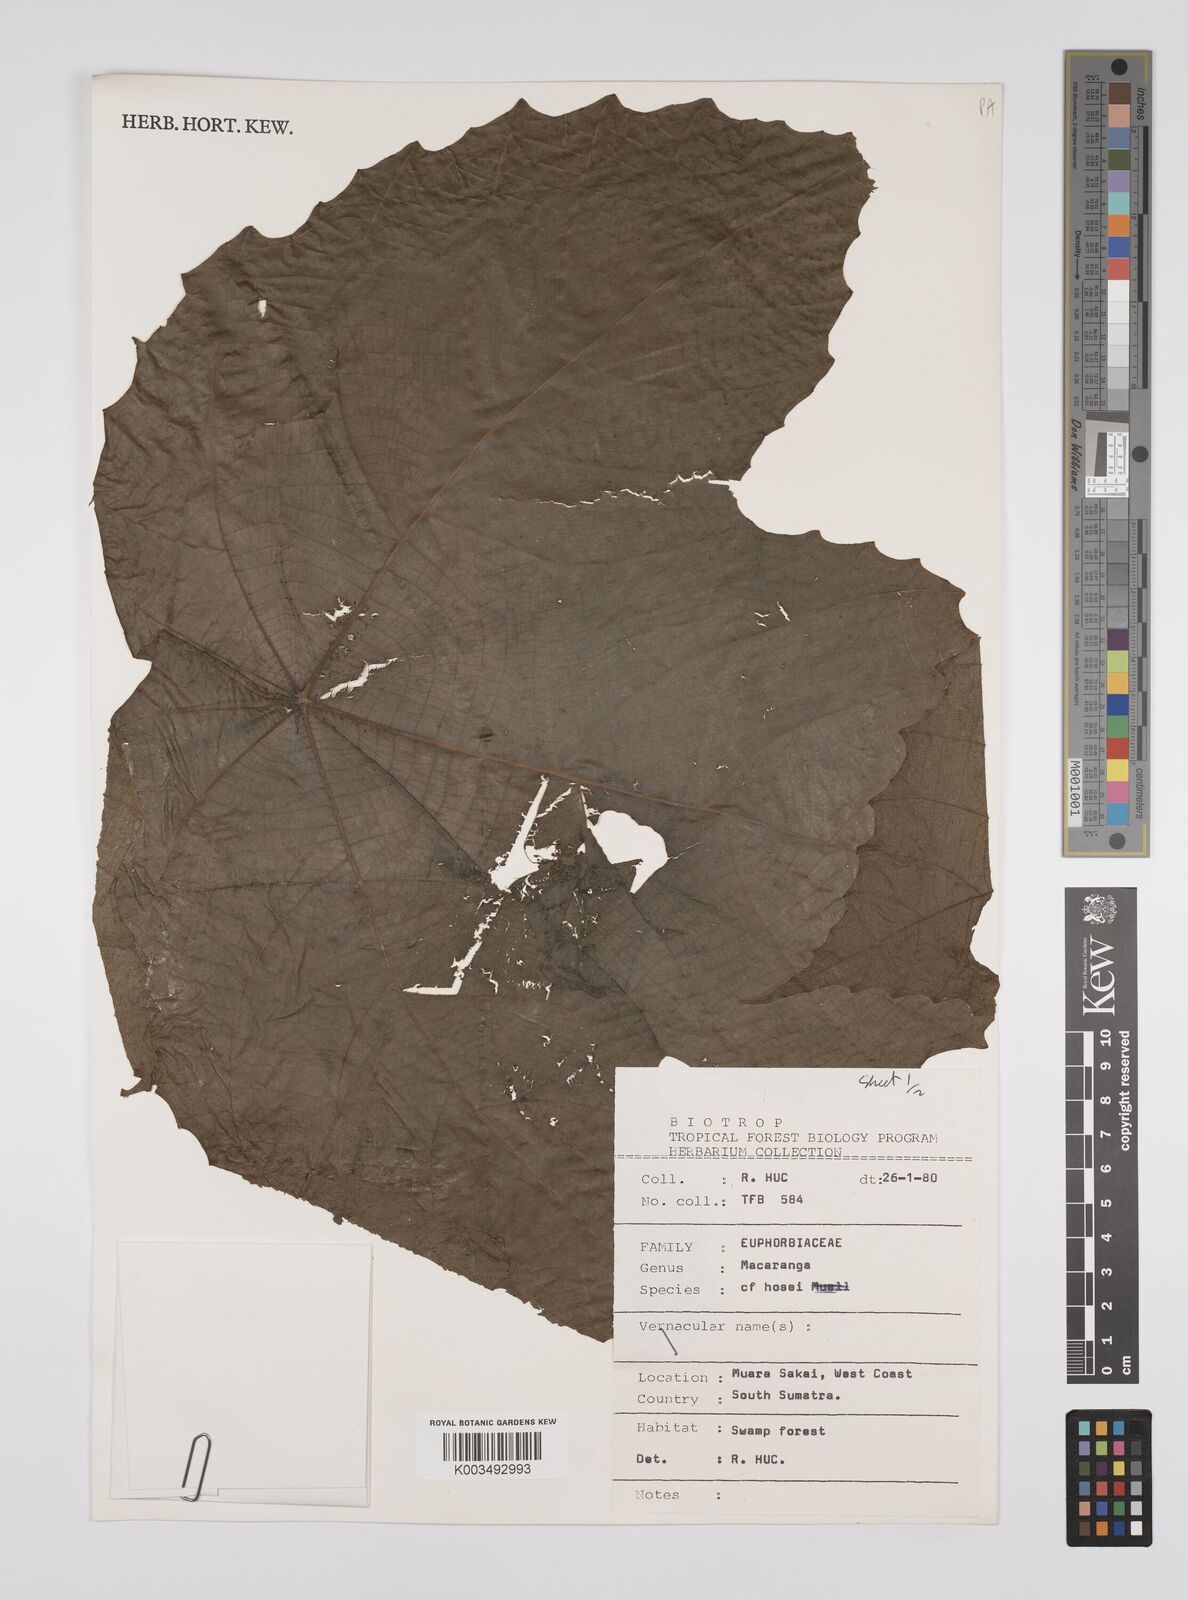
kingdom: Plantae
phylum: Tracheophyta
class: Magnoliopsida
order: Malpighiales
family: Euphorbiaceae
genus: Macaranga
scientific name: Macaranga hosei
